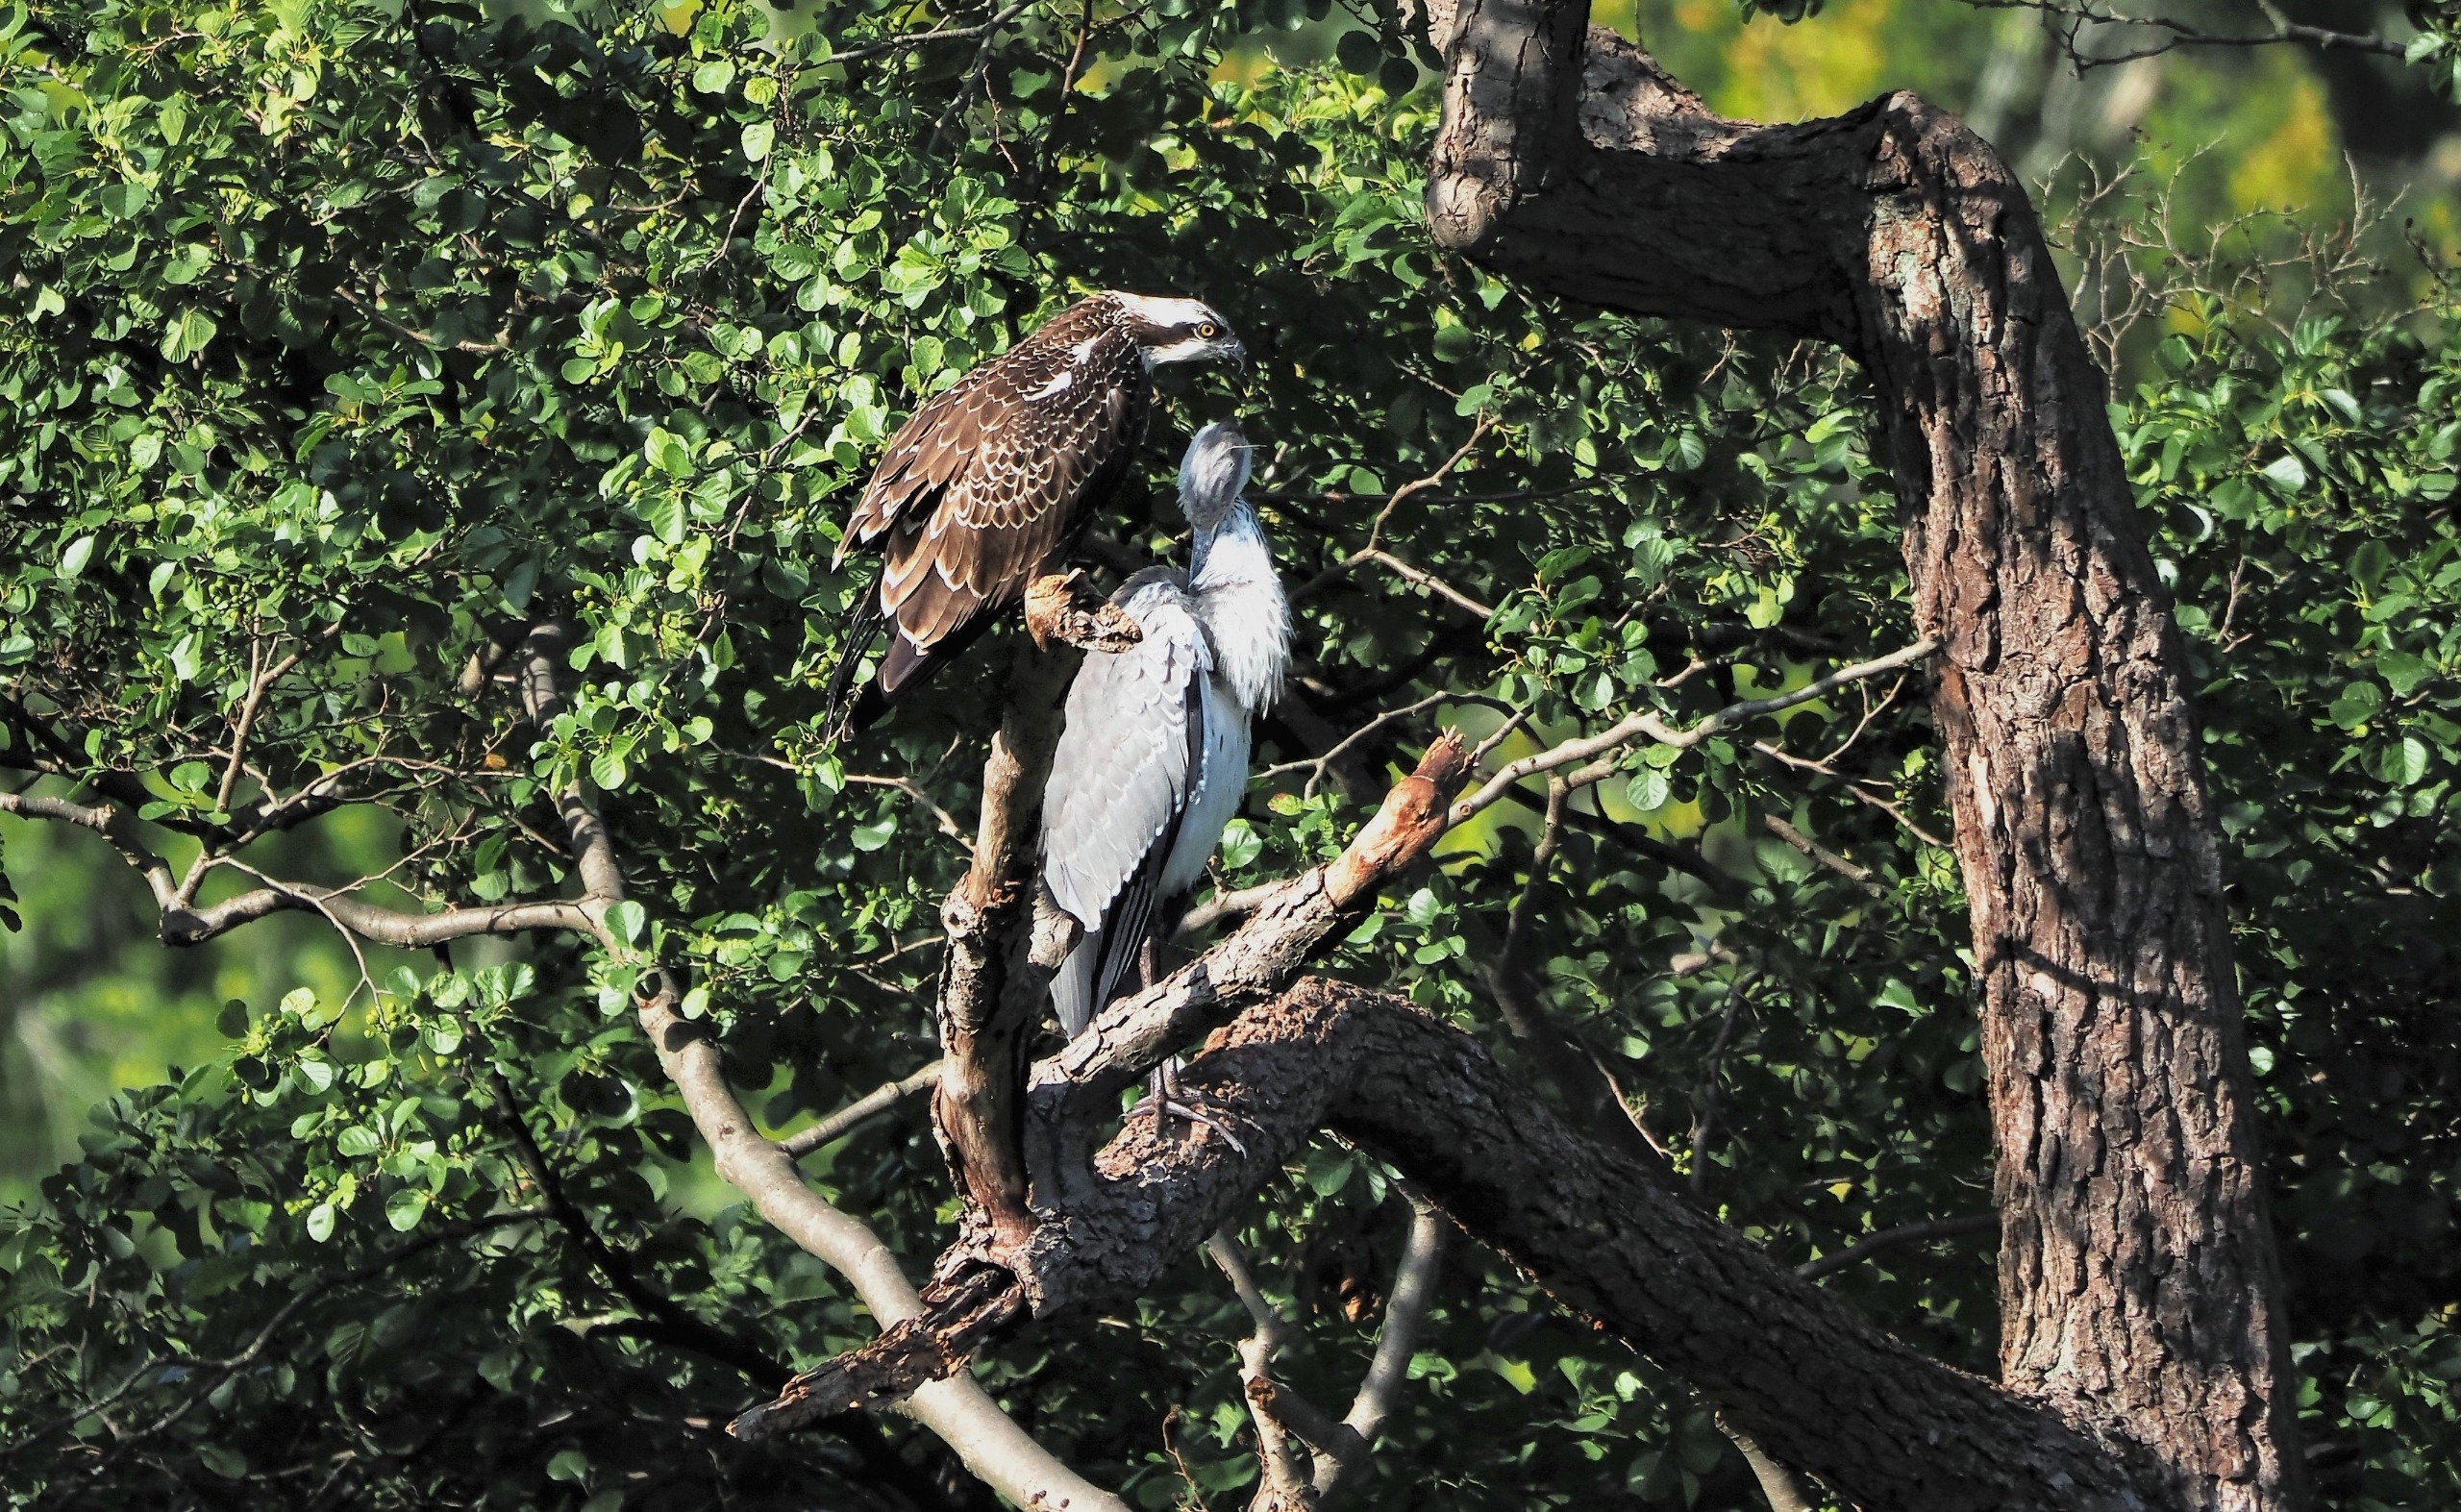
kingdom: Animalia
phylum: Chordata
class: Aves
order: Accipitriformes
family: Pandionidae
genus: Pandion
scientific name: Pandion haliaetus
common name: Fiskeørn
